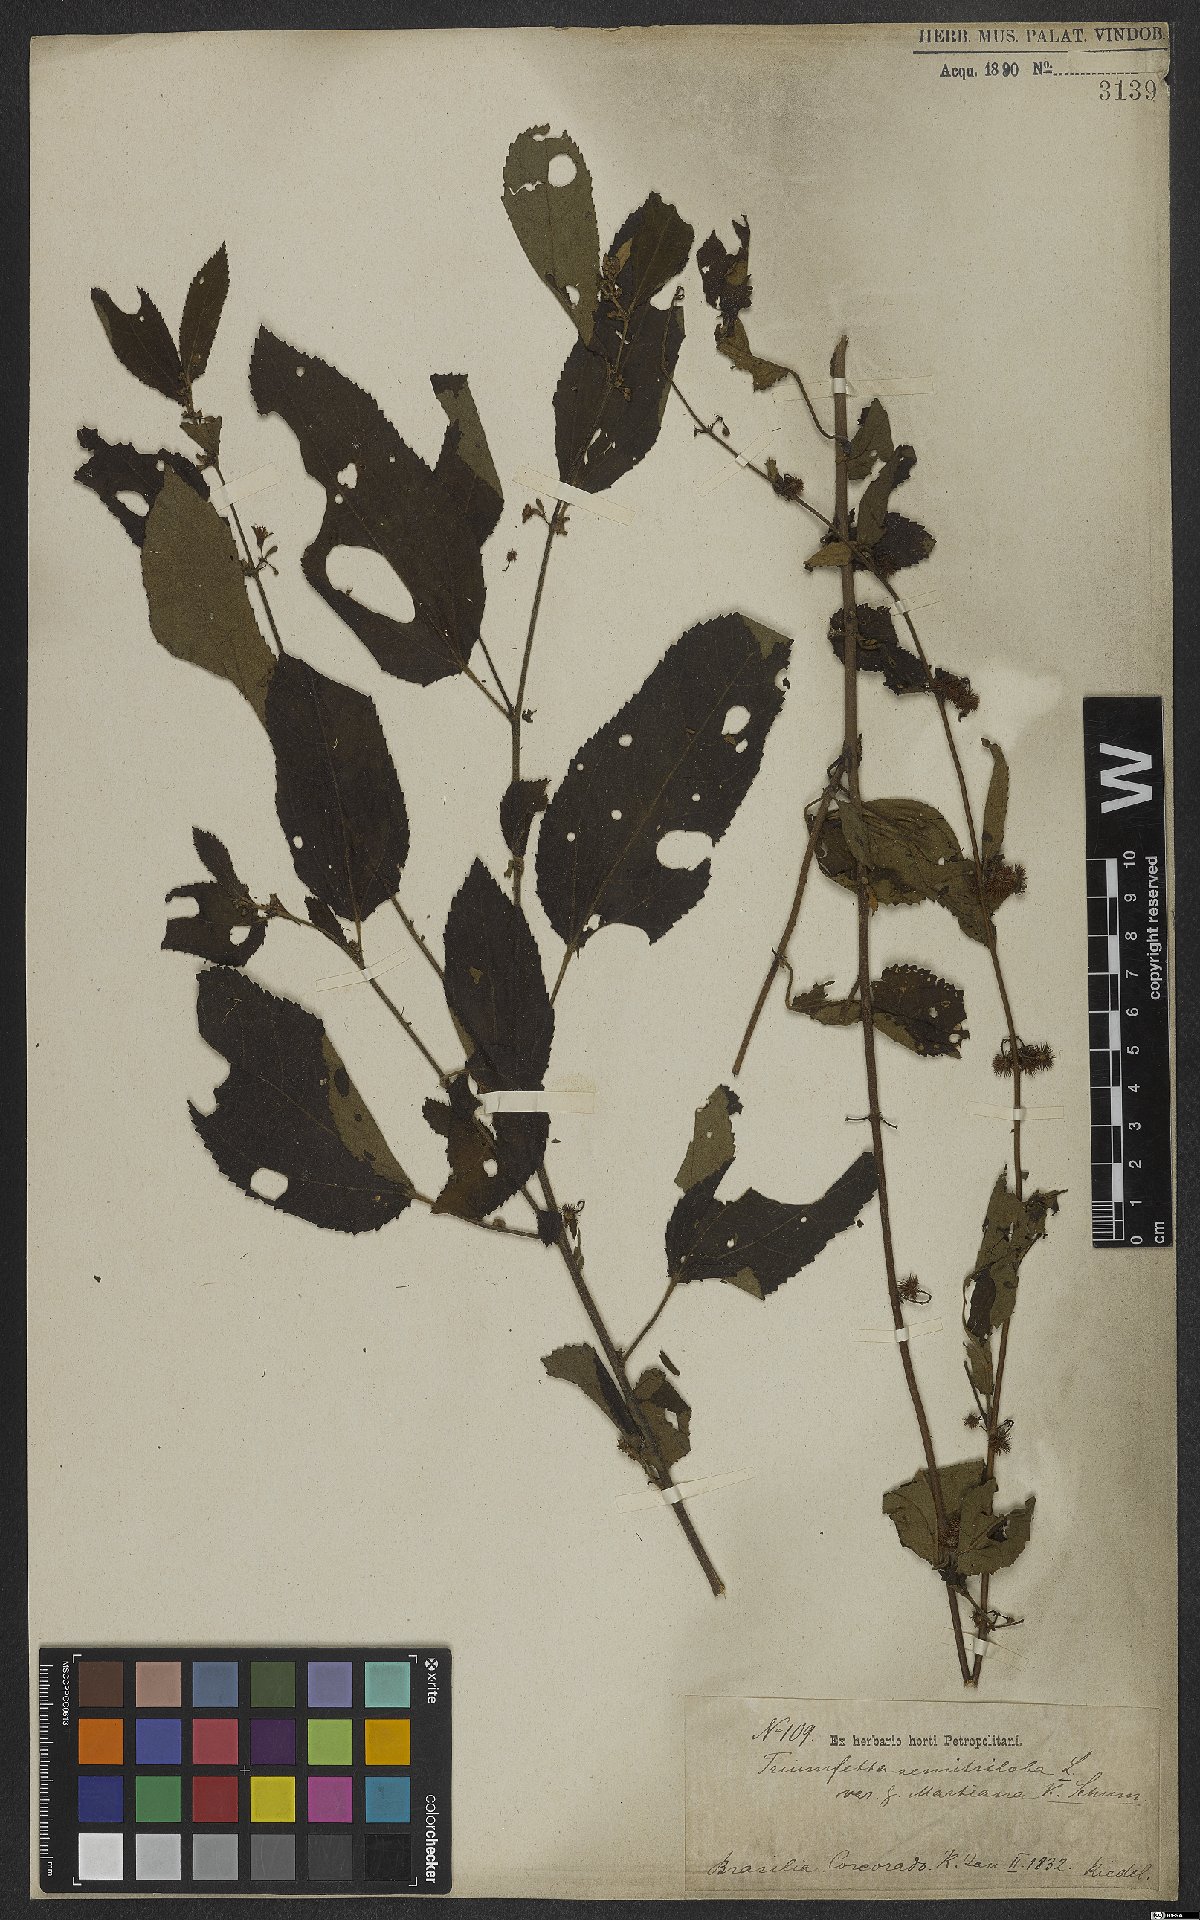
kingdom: Plantae
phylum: Tracheophyta
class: Magnoliopsida
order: Malvales
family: Malvaceae
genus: Triumfetta
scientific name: Triumfetta semitriloba
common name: Sacramento burbark
